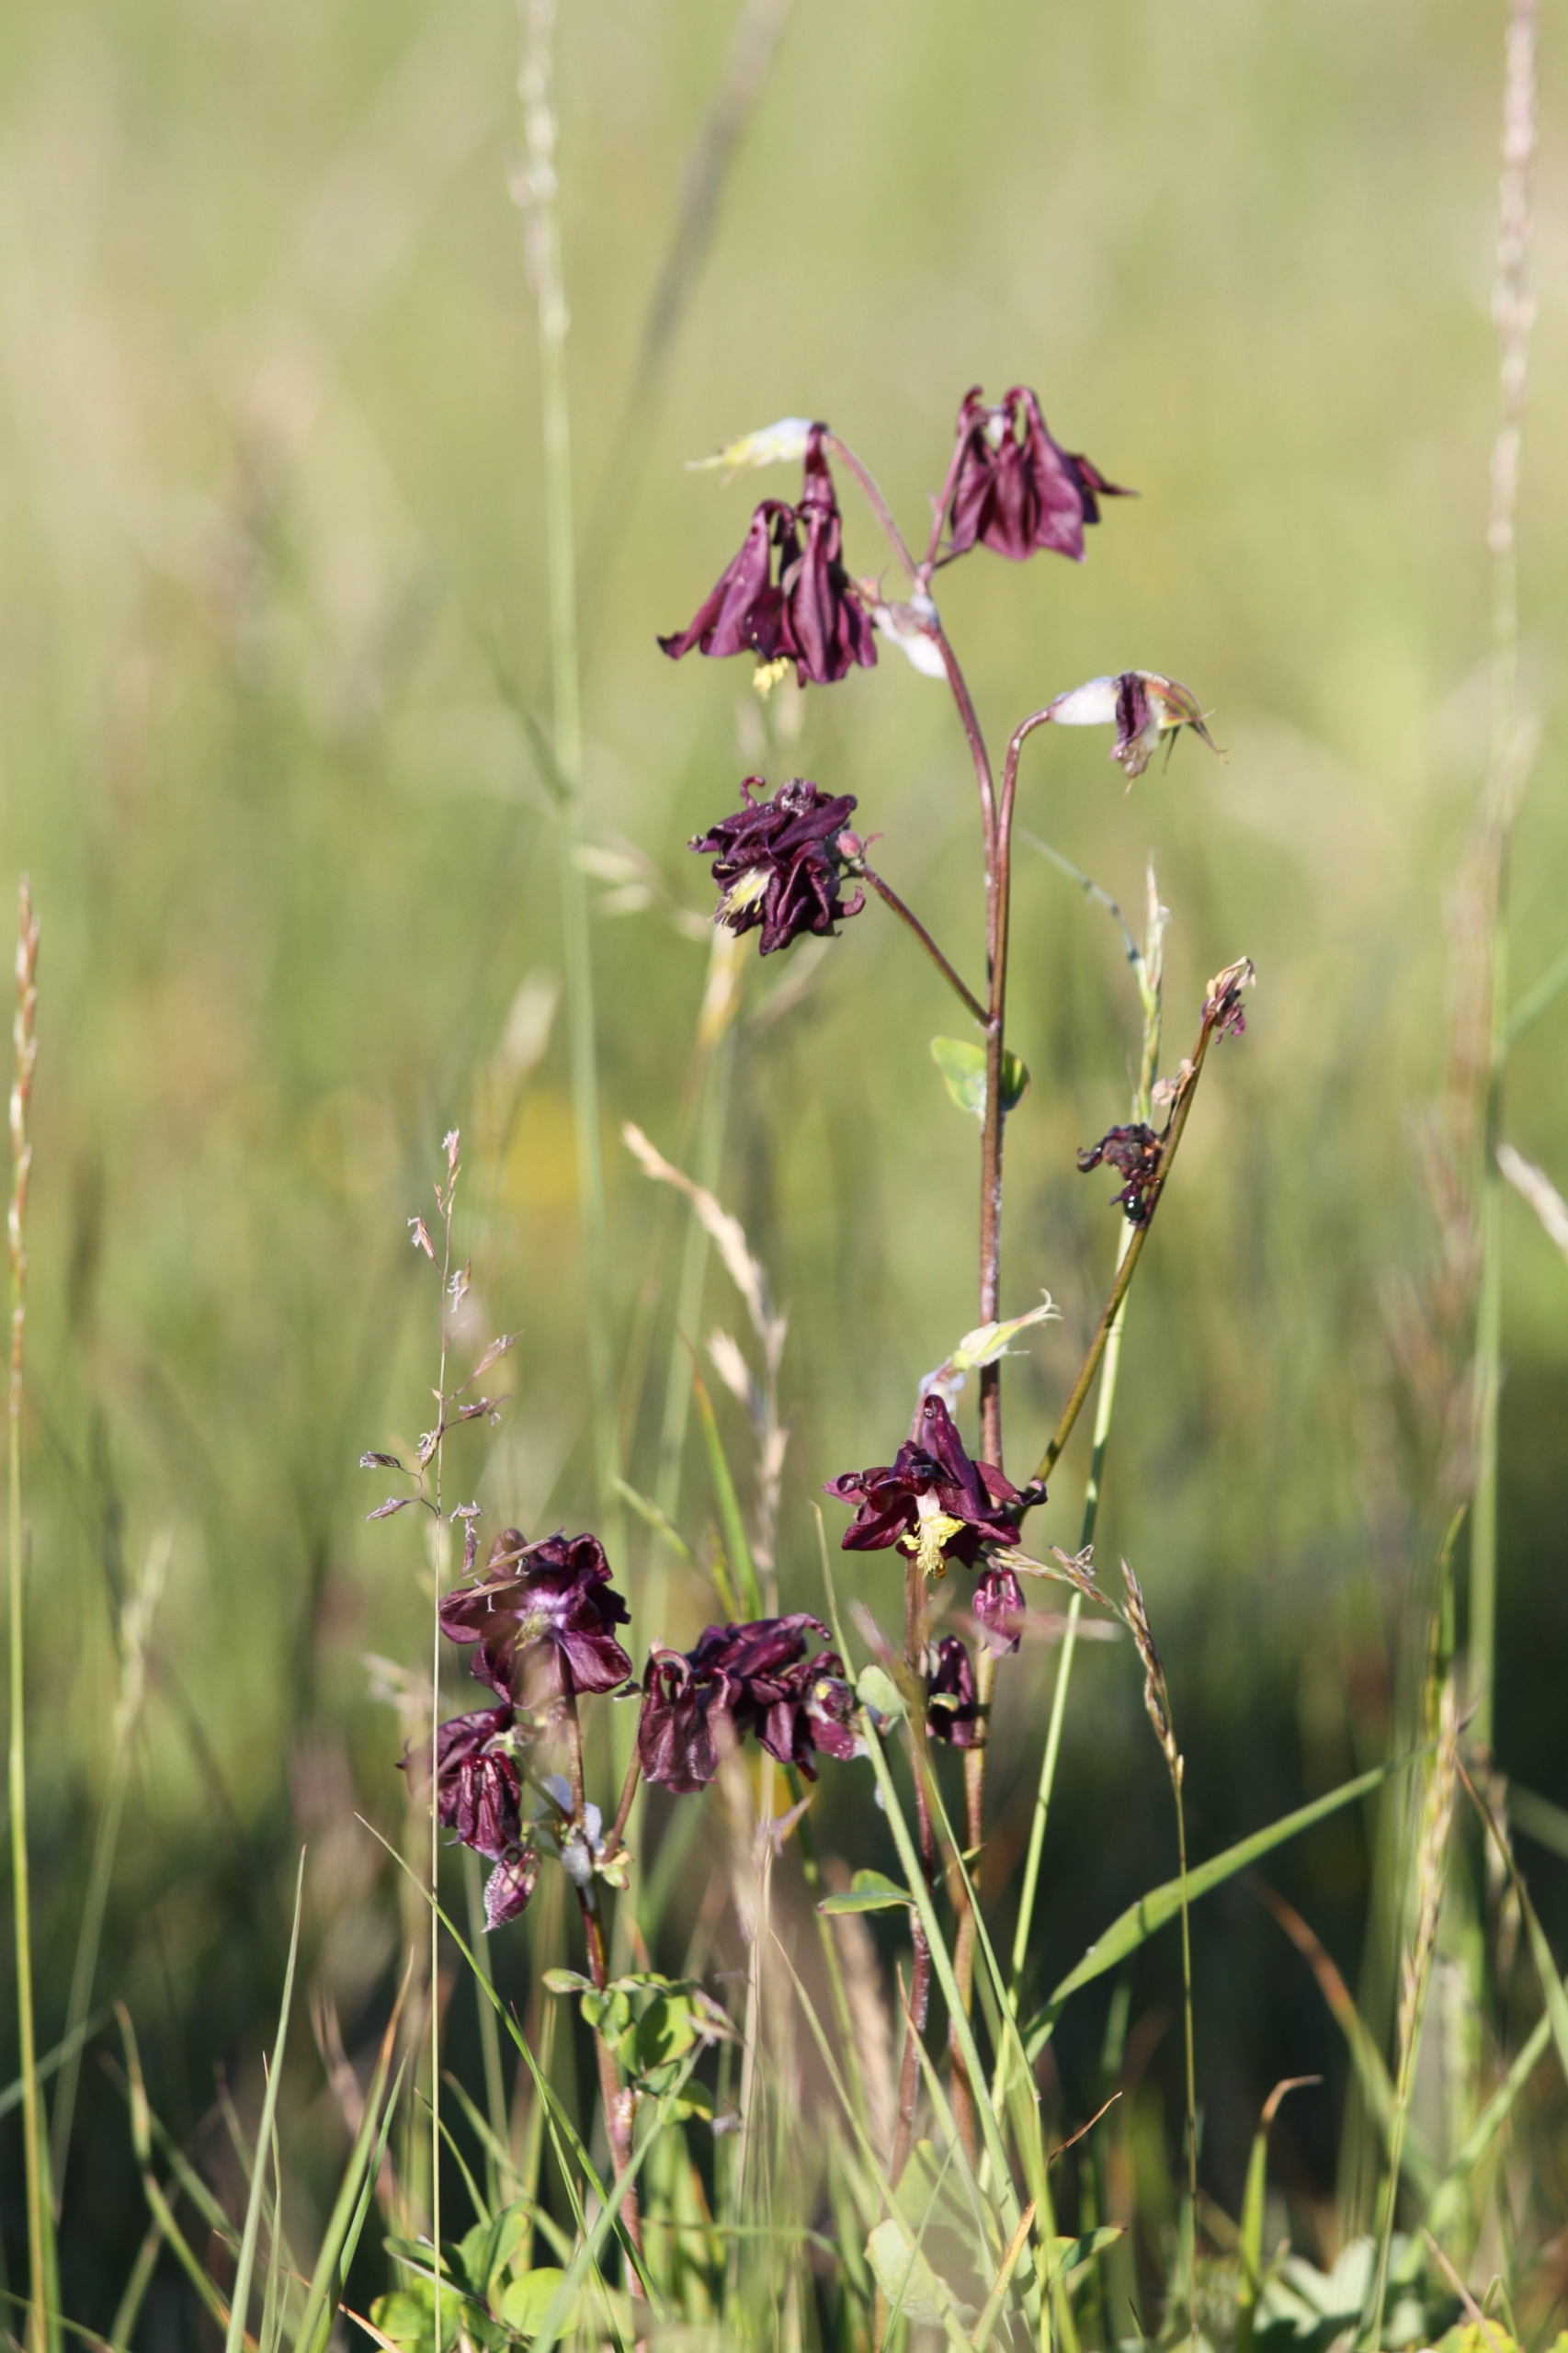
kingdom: Plantae
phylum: Tracheophyta
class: Magnoliopsida
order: Ranunculales
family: Ranunculaceae
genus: Aquilegia
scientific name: Aquilegia vulgaris
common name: Akeleje
